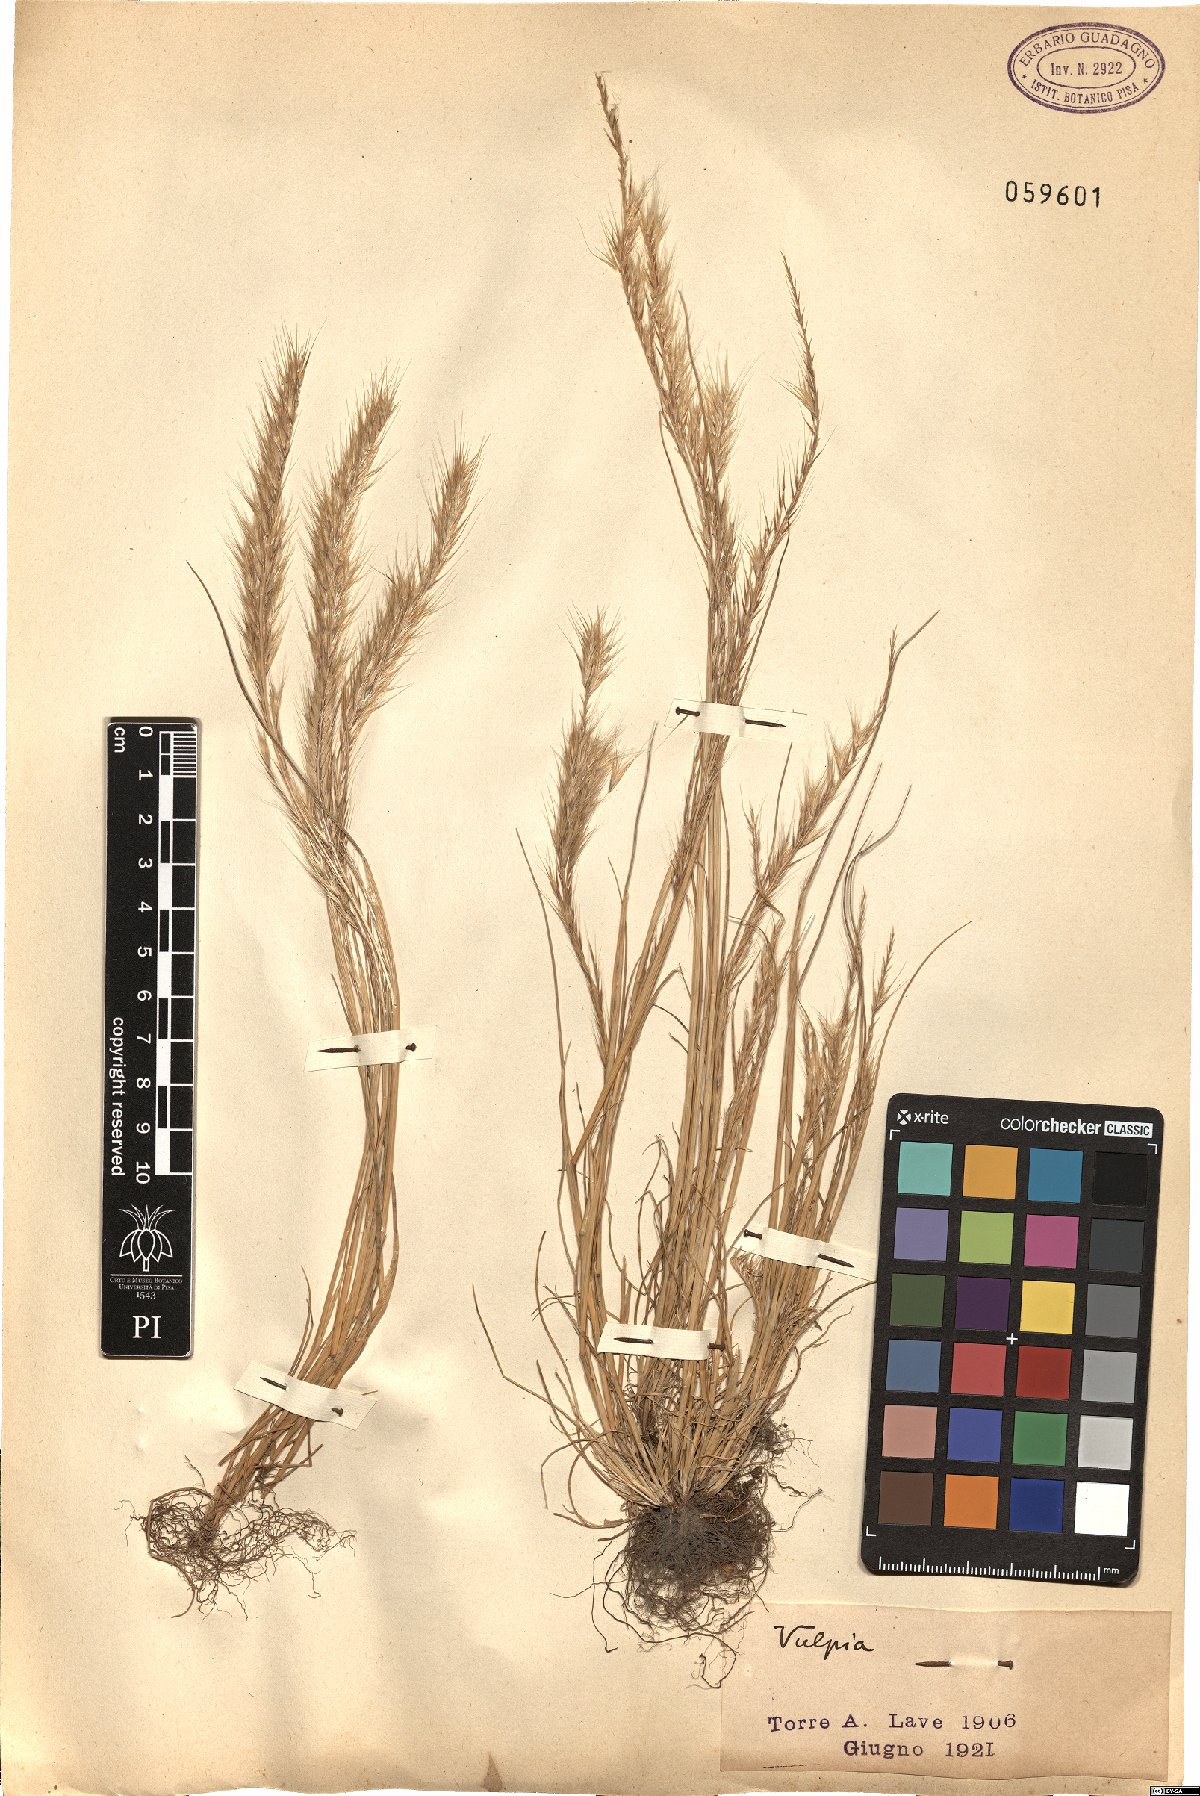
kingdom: Plantae
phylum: Tracheophyta
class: Liliopsida
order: Poales
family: Poaceae
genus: Festuca
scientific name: Festuca
